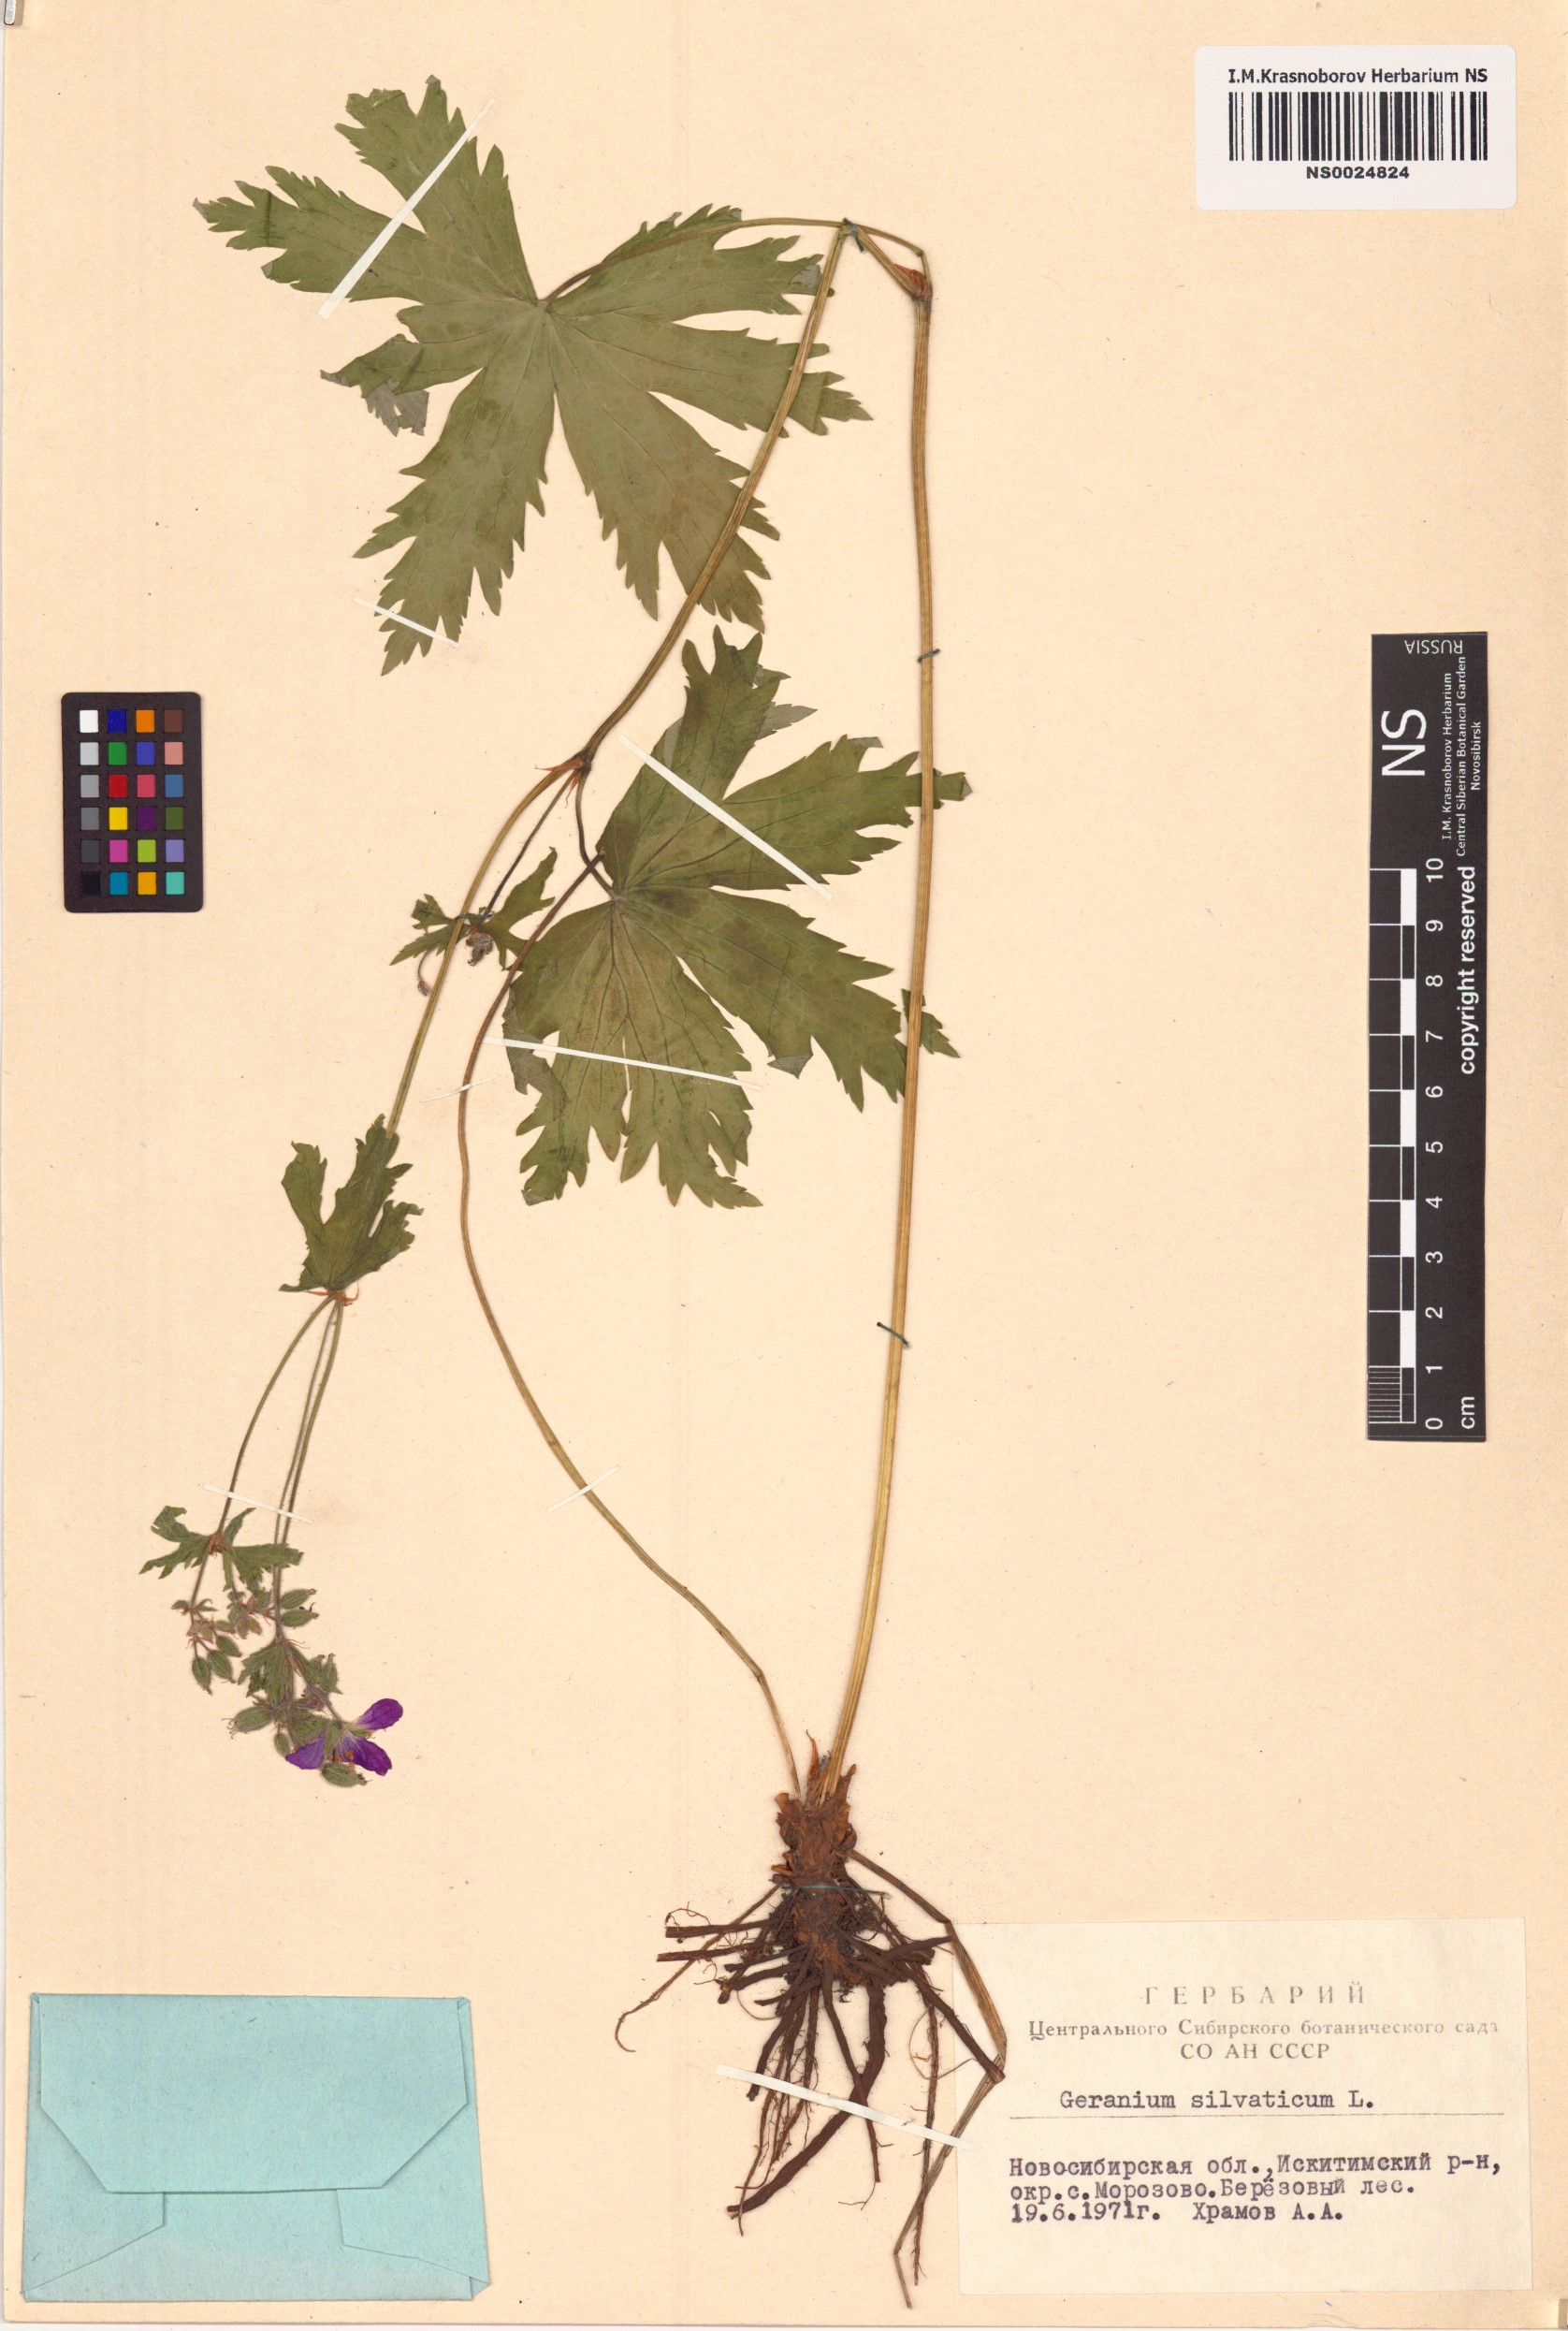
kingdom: Plantae
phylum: Tracheophyta
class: Magnoliopsida
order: Geraniales
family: Geraniaceae
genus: Geranium
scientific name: Geranium sylvaticum
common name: Wood crane's-bill
